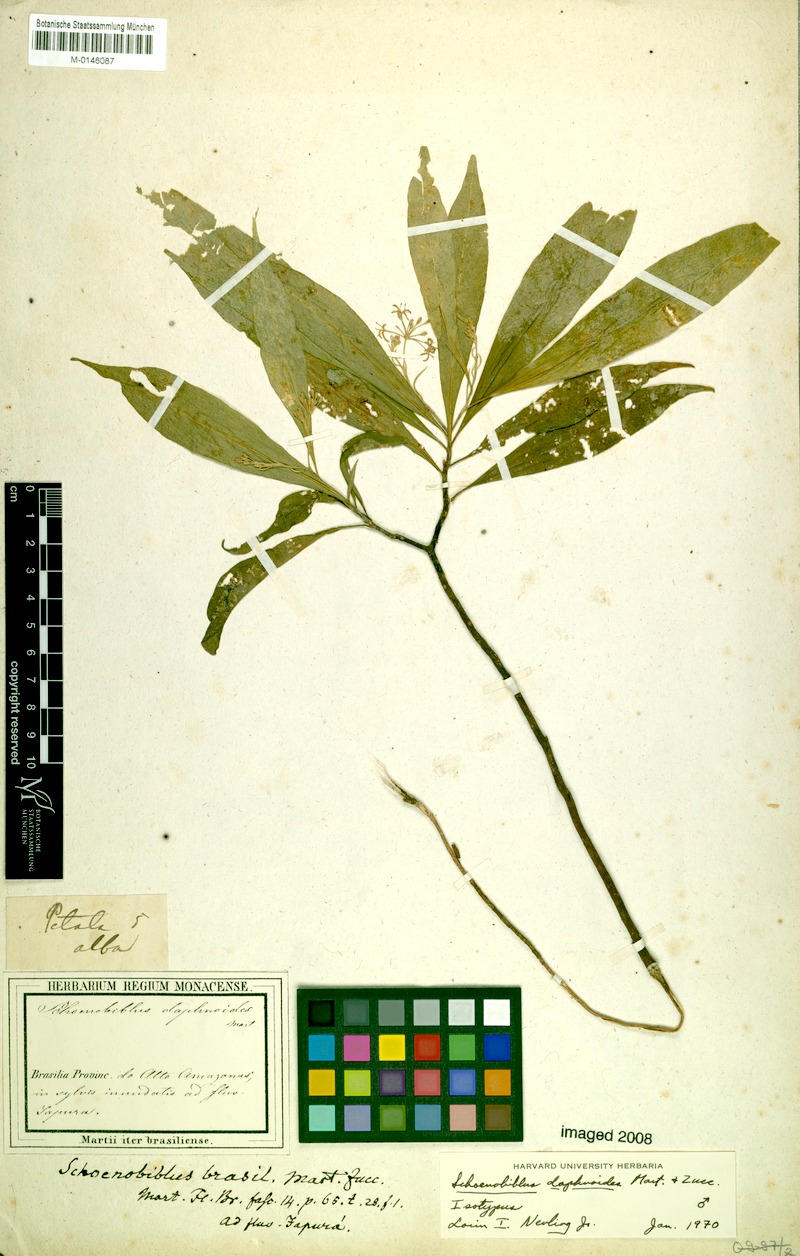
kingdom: Plantae
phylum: Tracheophyta
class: Magnoliopsida
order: Malvales
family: Thymelaeaceae
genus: Schoenobiblus
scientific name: Schoenobiblus daphnoides
